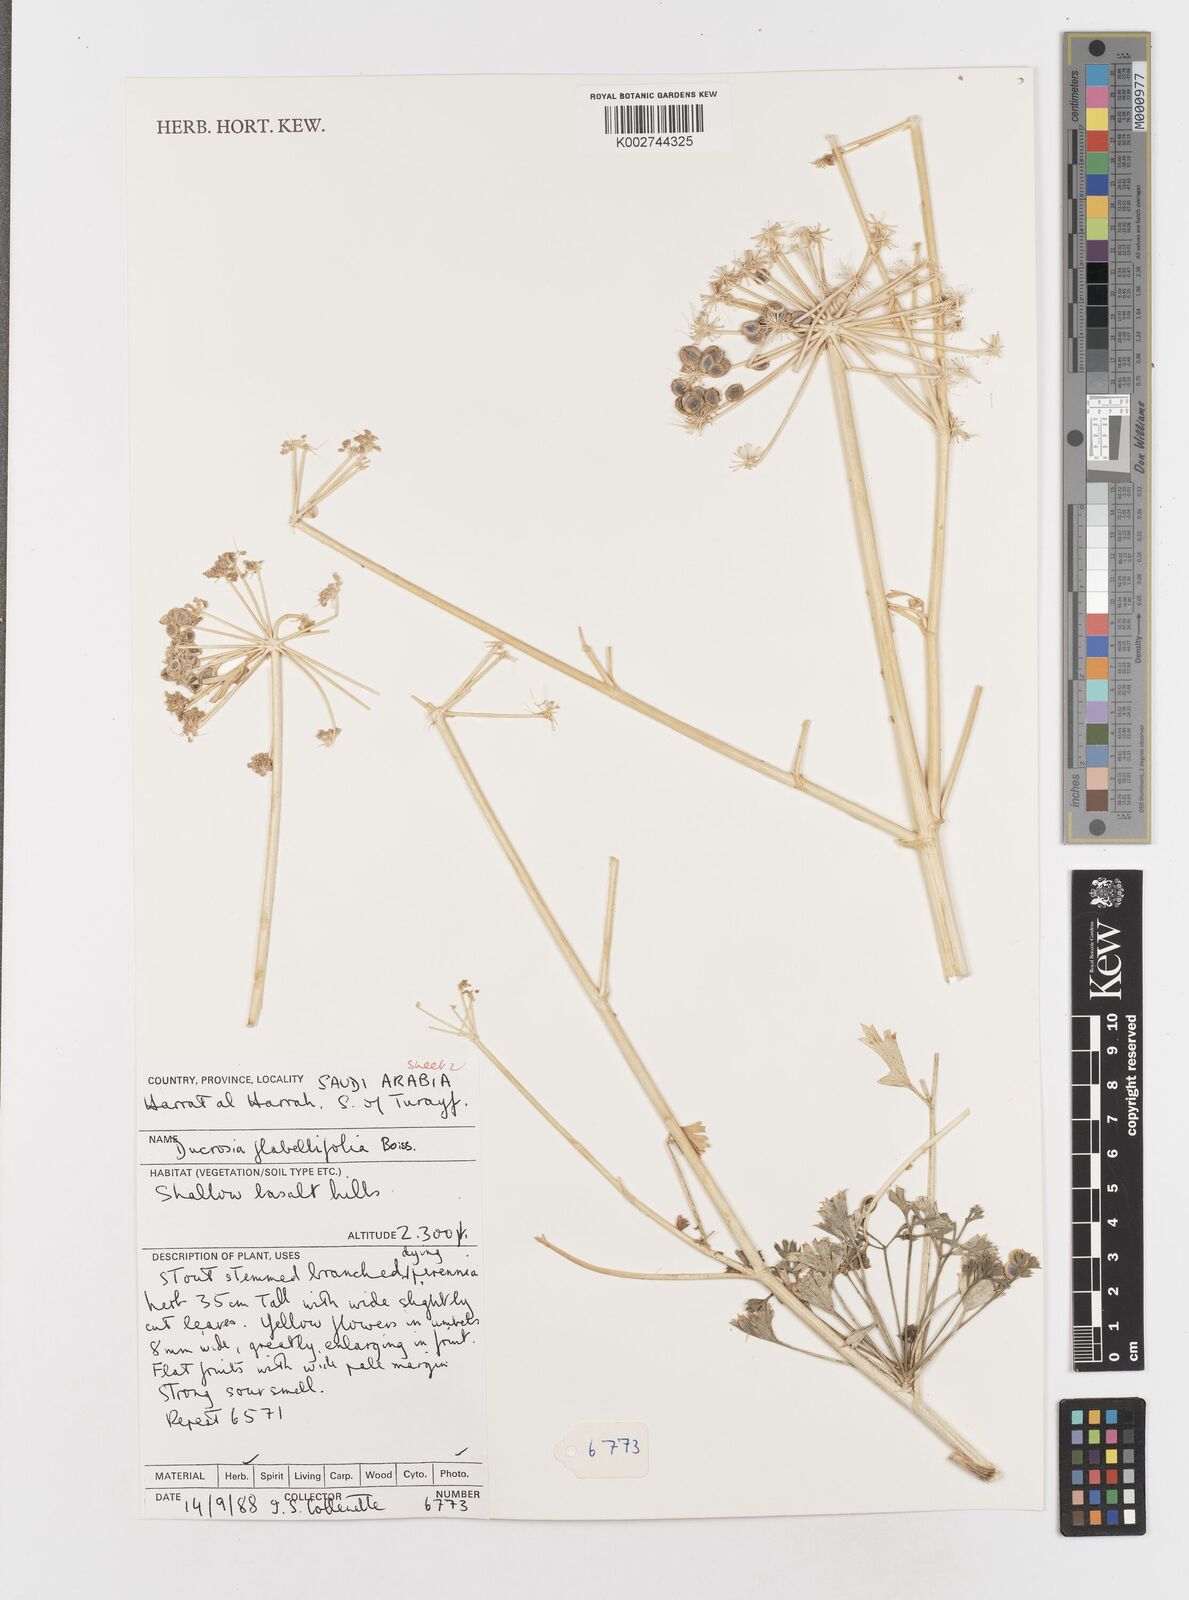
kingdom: Plantae
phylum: Tracheophyta
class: Magnoliopsida
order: Apiales
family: Apiaceae
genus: Ducrosia
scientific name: Ducrosia flabellifolia
